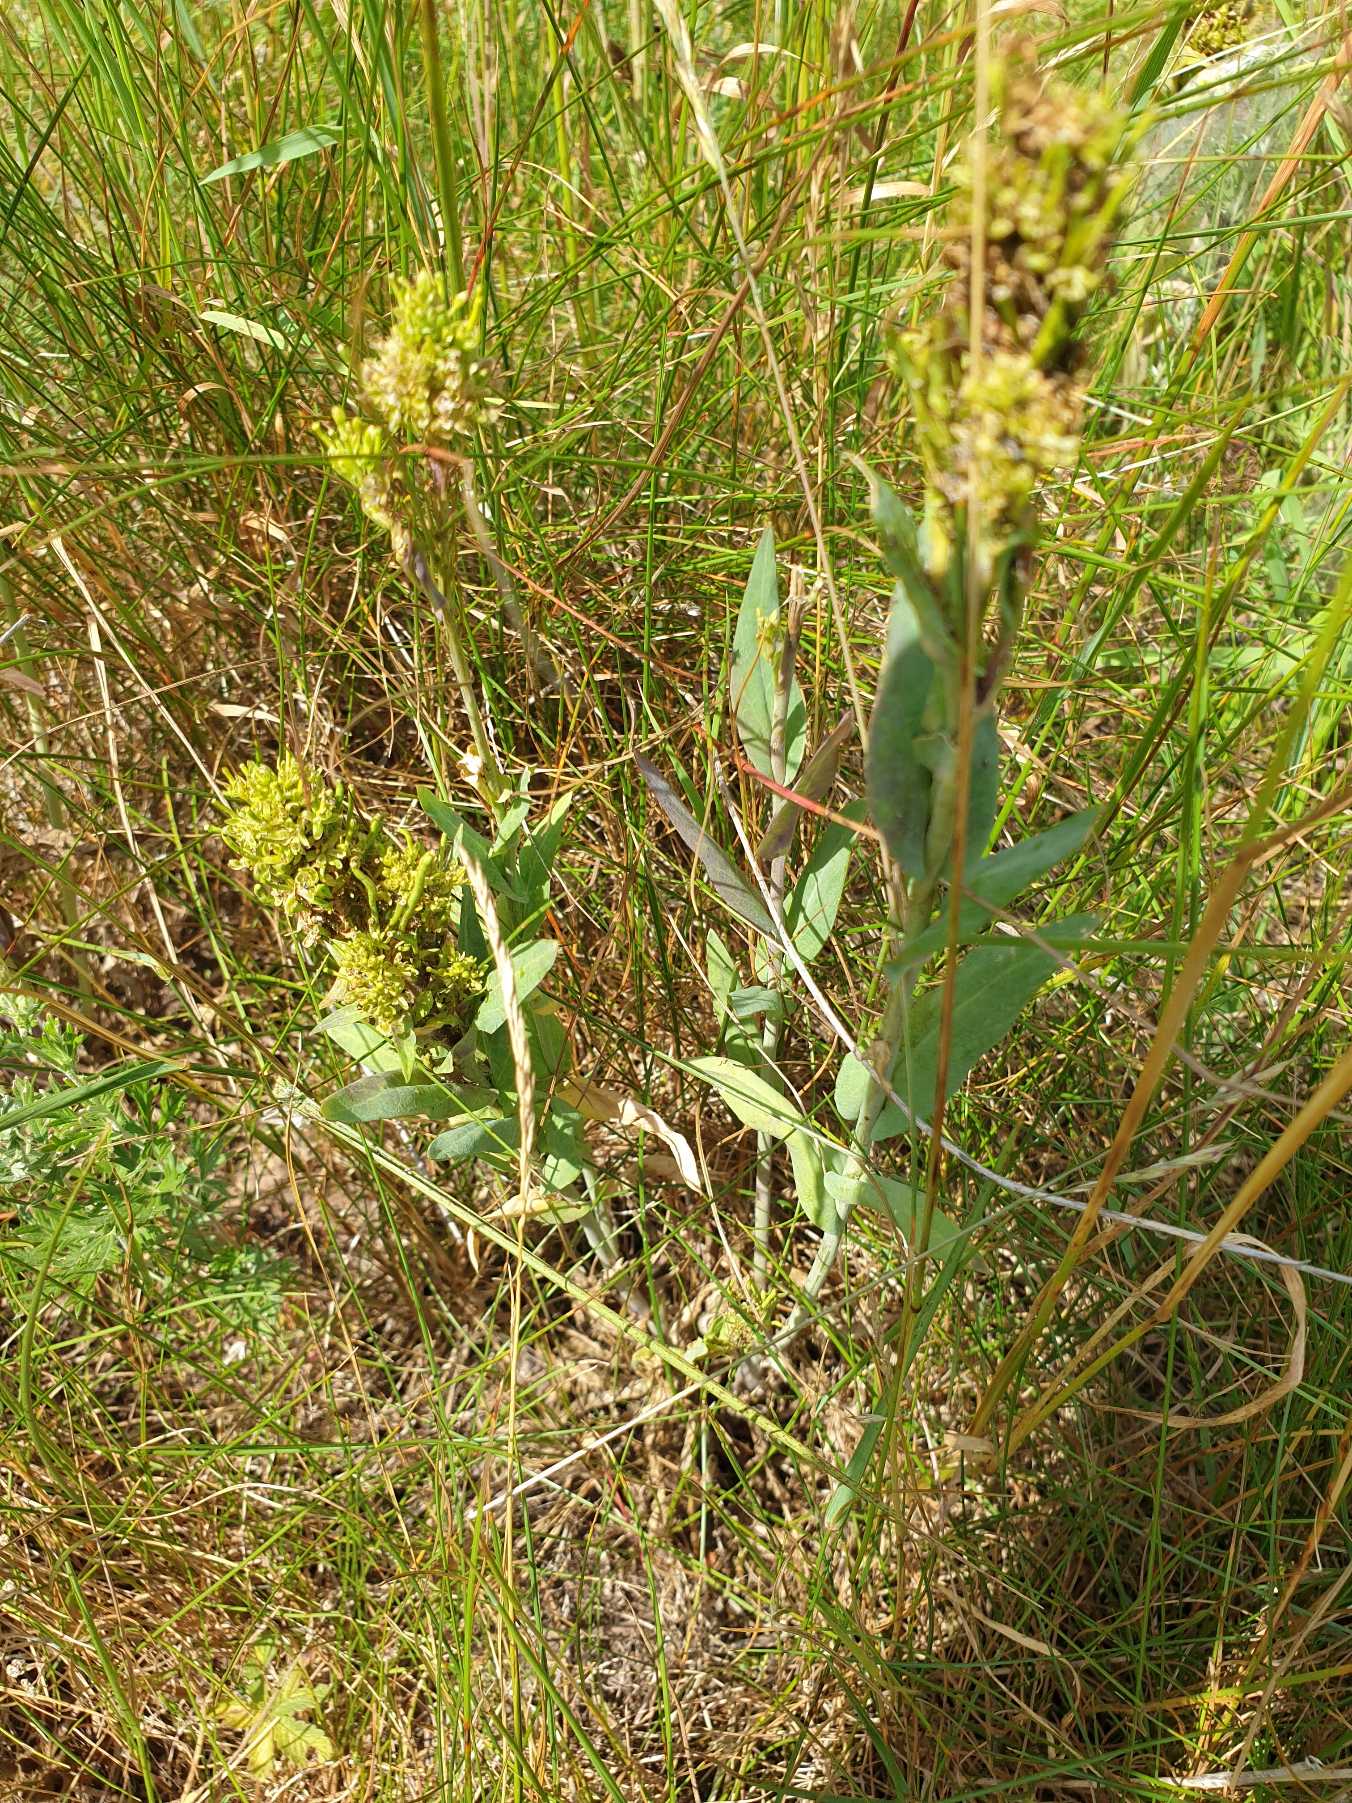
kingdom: Plantae
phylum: Tracheophyta
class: Magnoliopsida
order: Brassicales
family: Brassicaceae
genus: Turritis
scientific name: Turritis glabra
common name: Tårnurt
